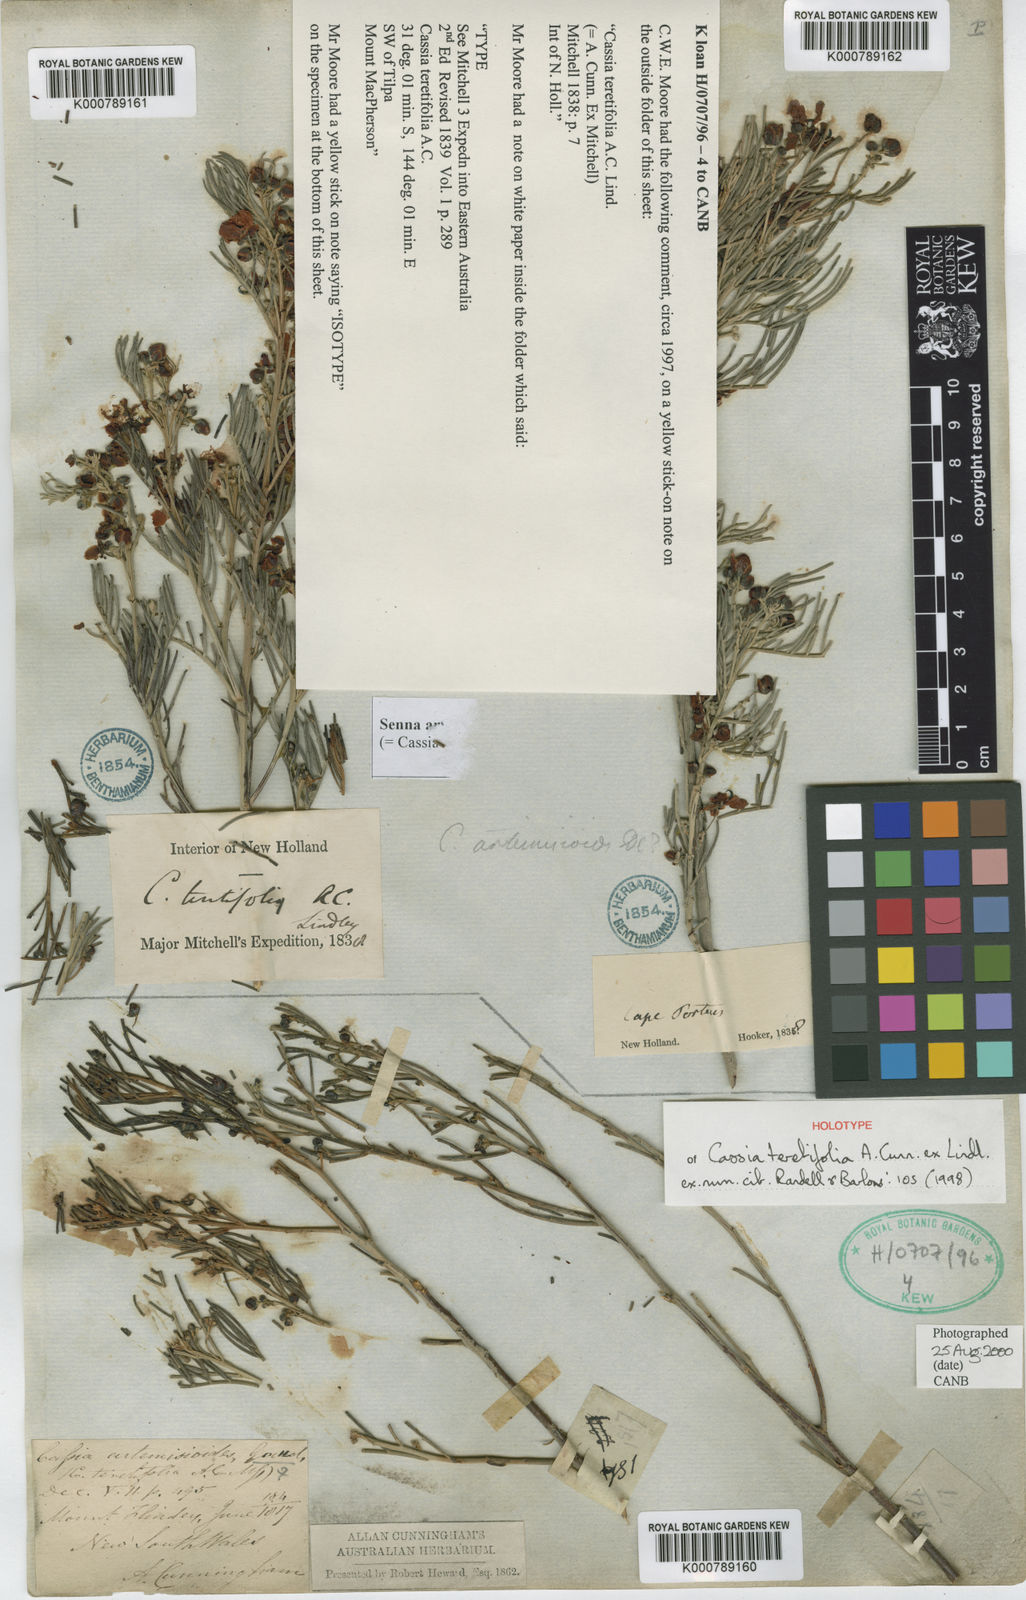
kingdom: Plantae
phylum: Tracheophyta
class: Magnoliopsida
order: Fabales
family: Fabaceae
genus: Senna
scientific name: Senna artemisioides
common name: Burnt-leaved acacia
